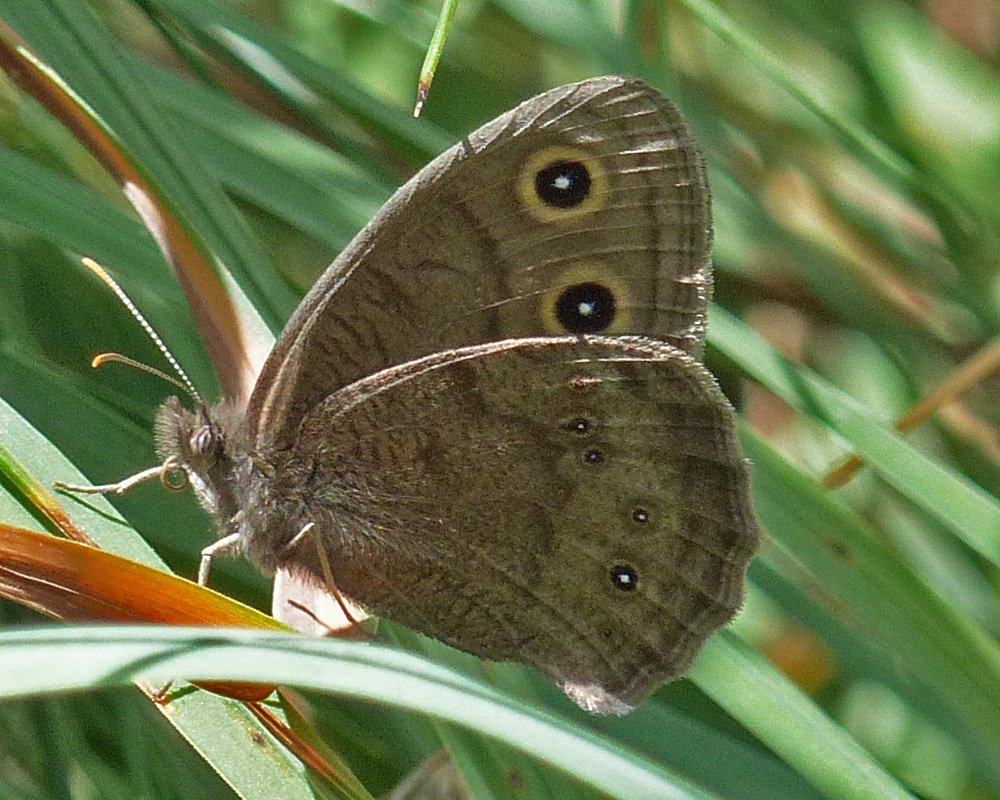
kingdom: Animalia
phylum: Arthropoda
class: Insecta
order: Lepidoptera
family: Nymphalidae
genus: Cercyonis
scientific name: Cercyonis pegala
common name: Common Wood-Nymph
